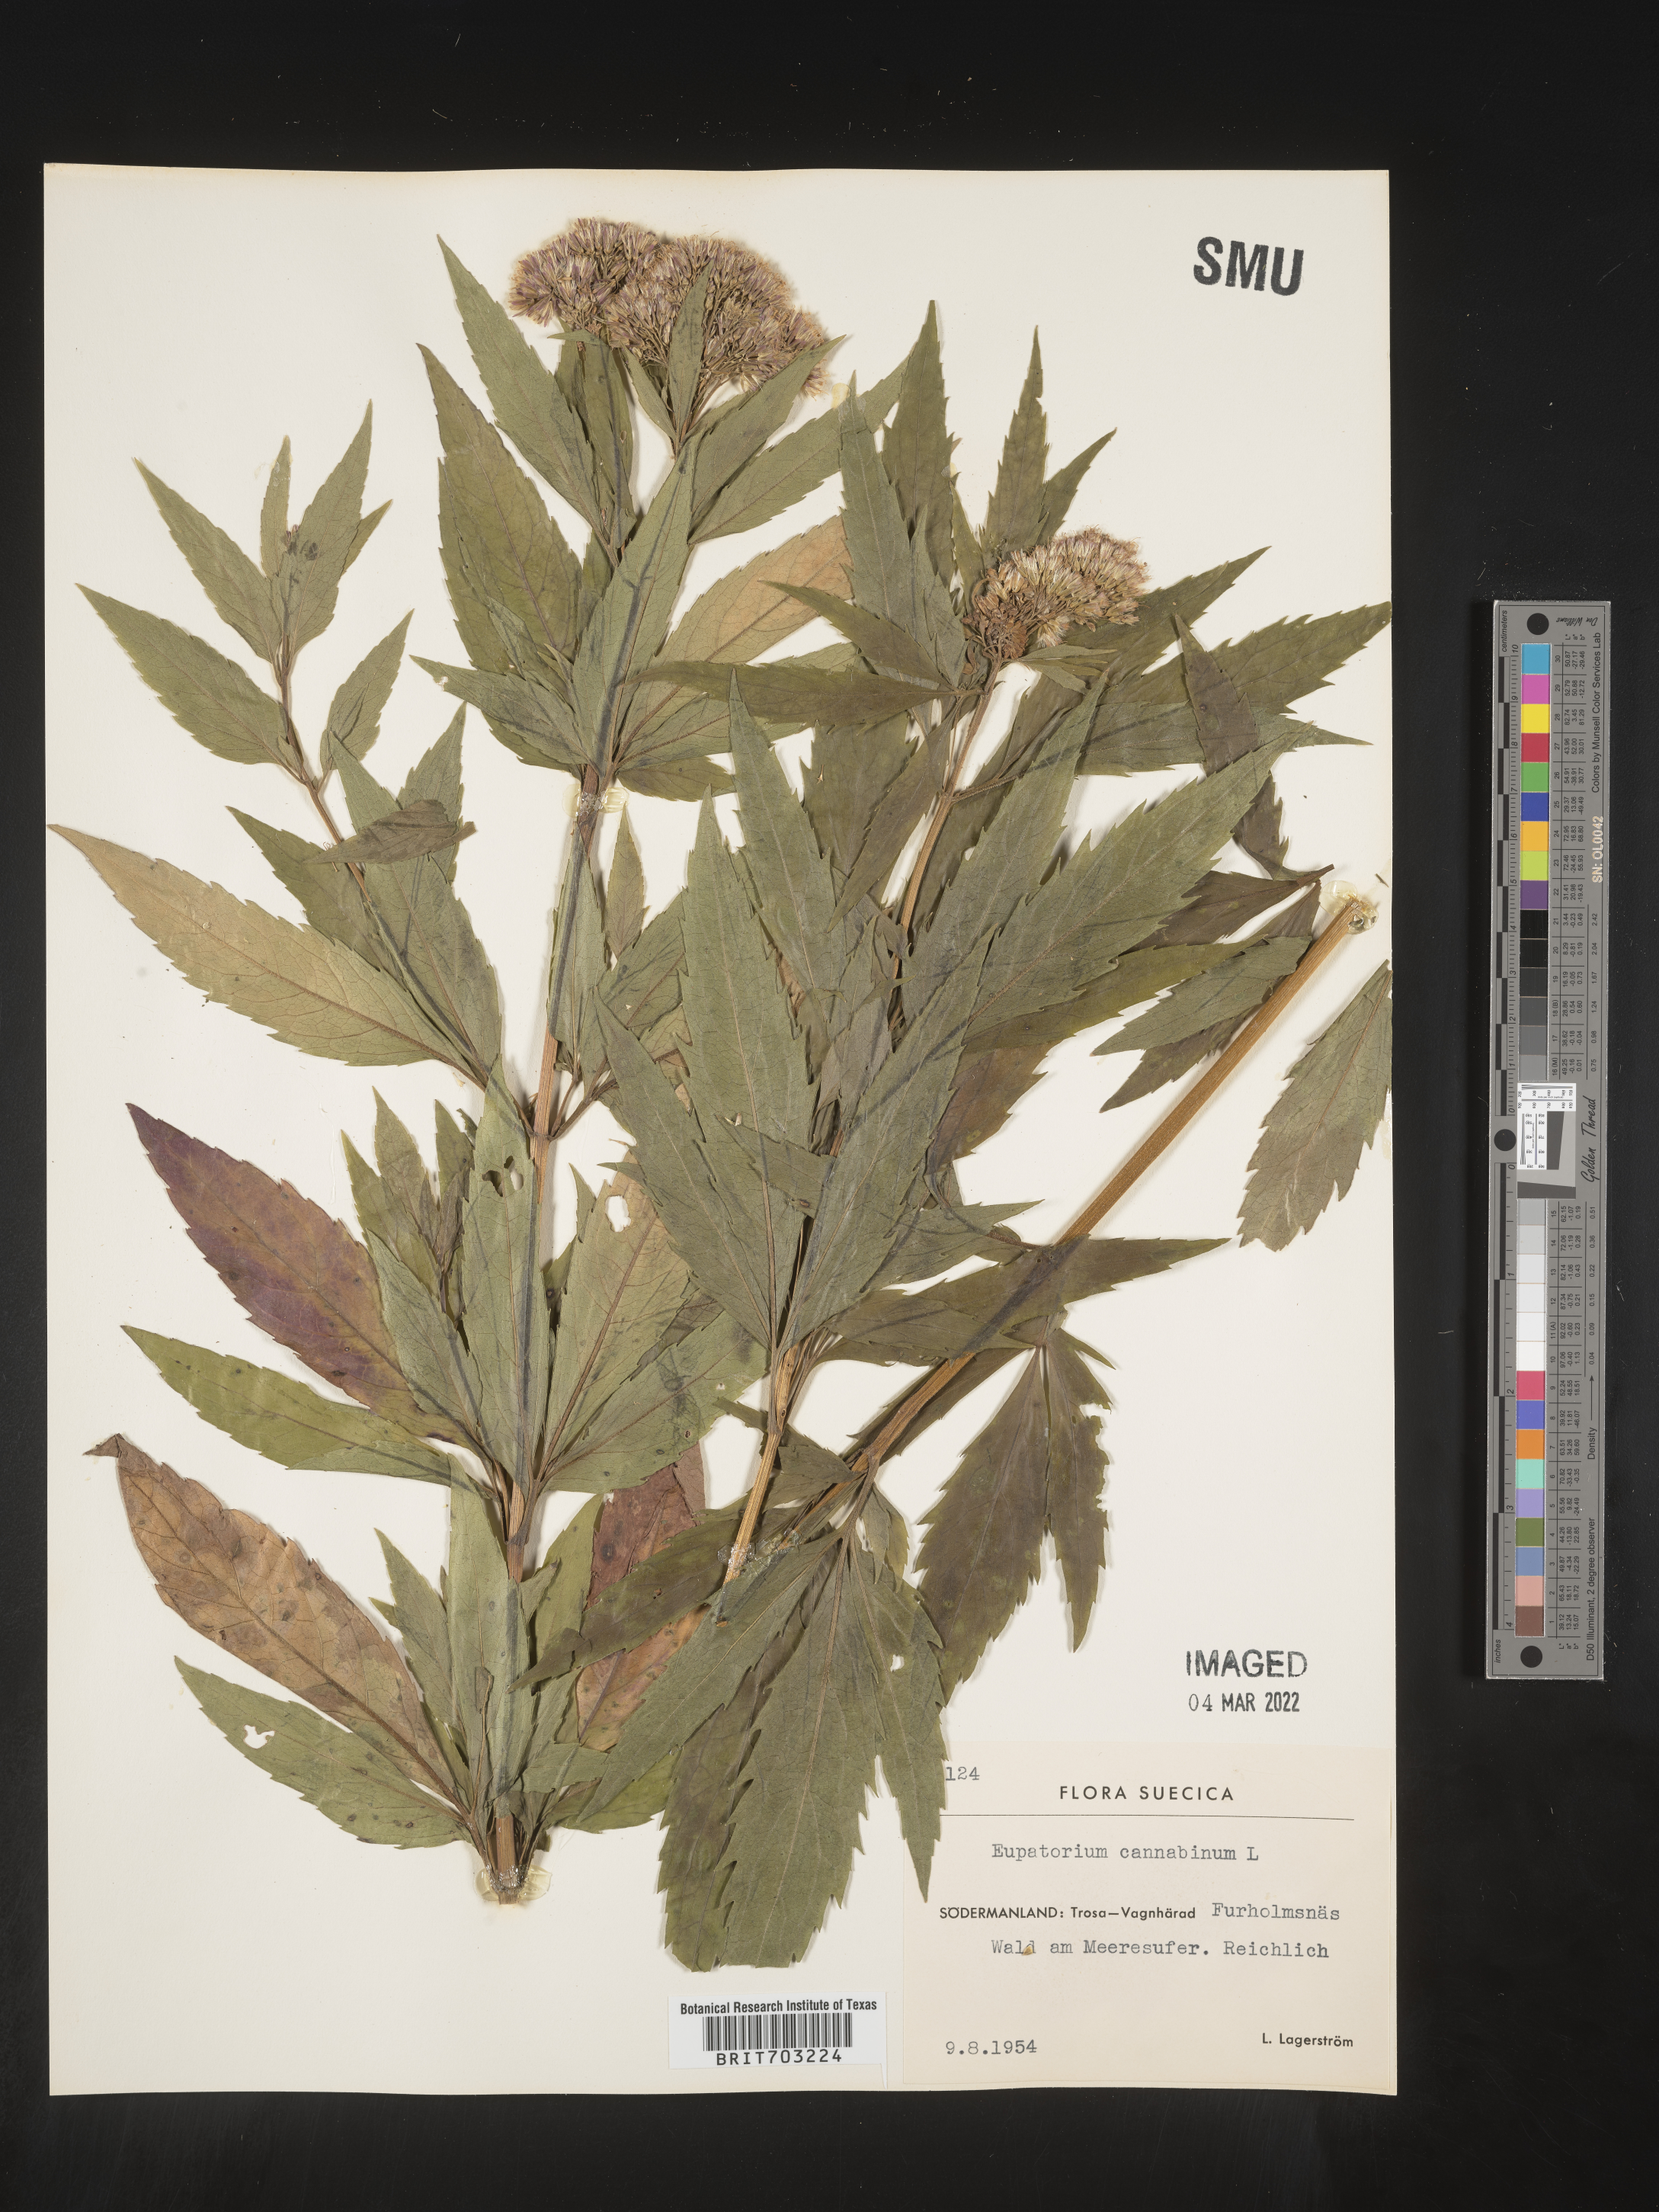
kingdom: Plantae
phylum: Tracheophyta
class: Magnoliopsida
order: Asterales
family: Asteraceae
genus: Eupatorium
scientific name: Eupatorium
